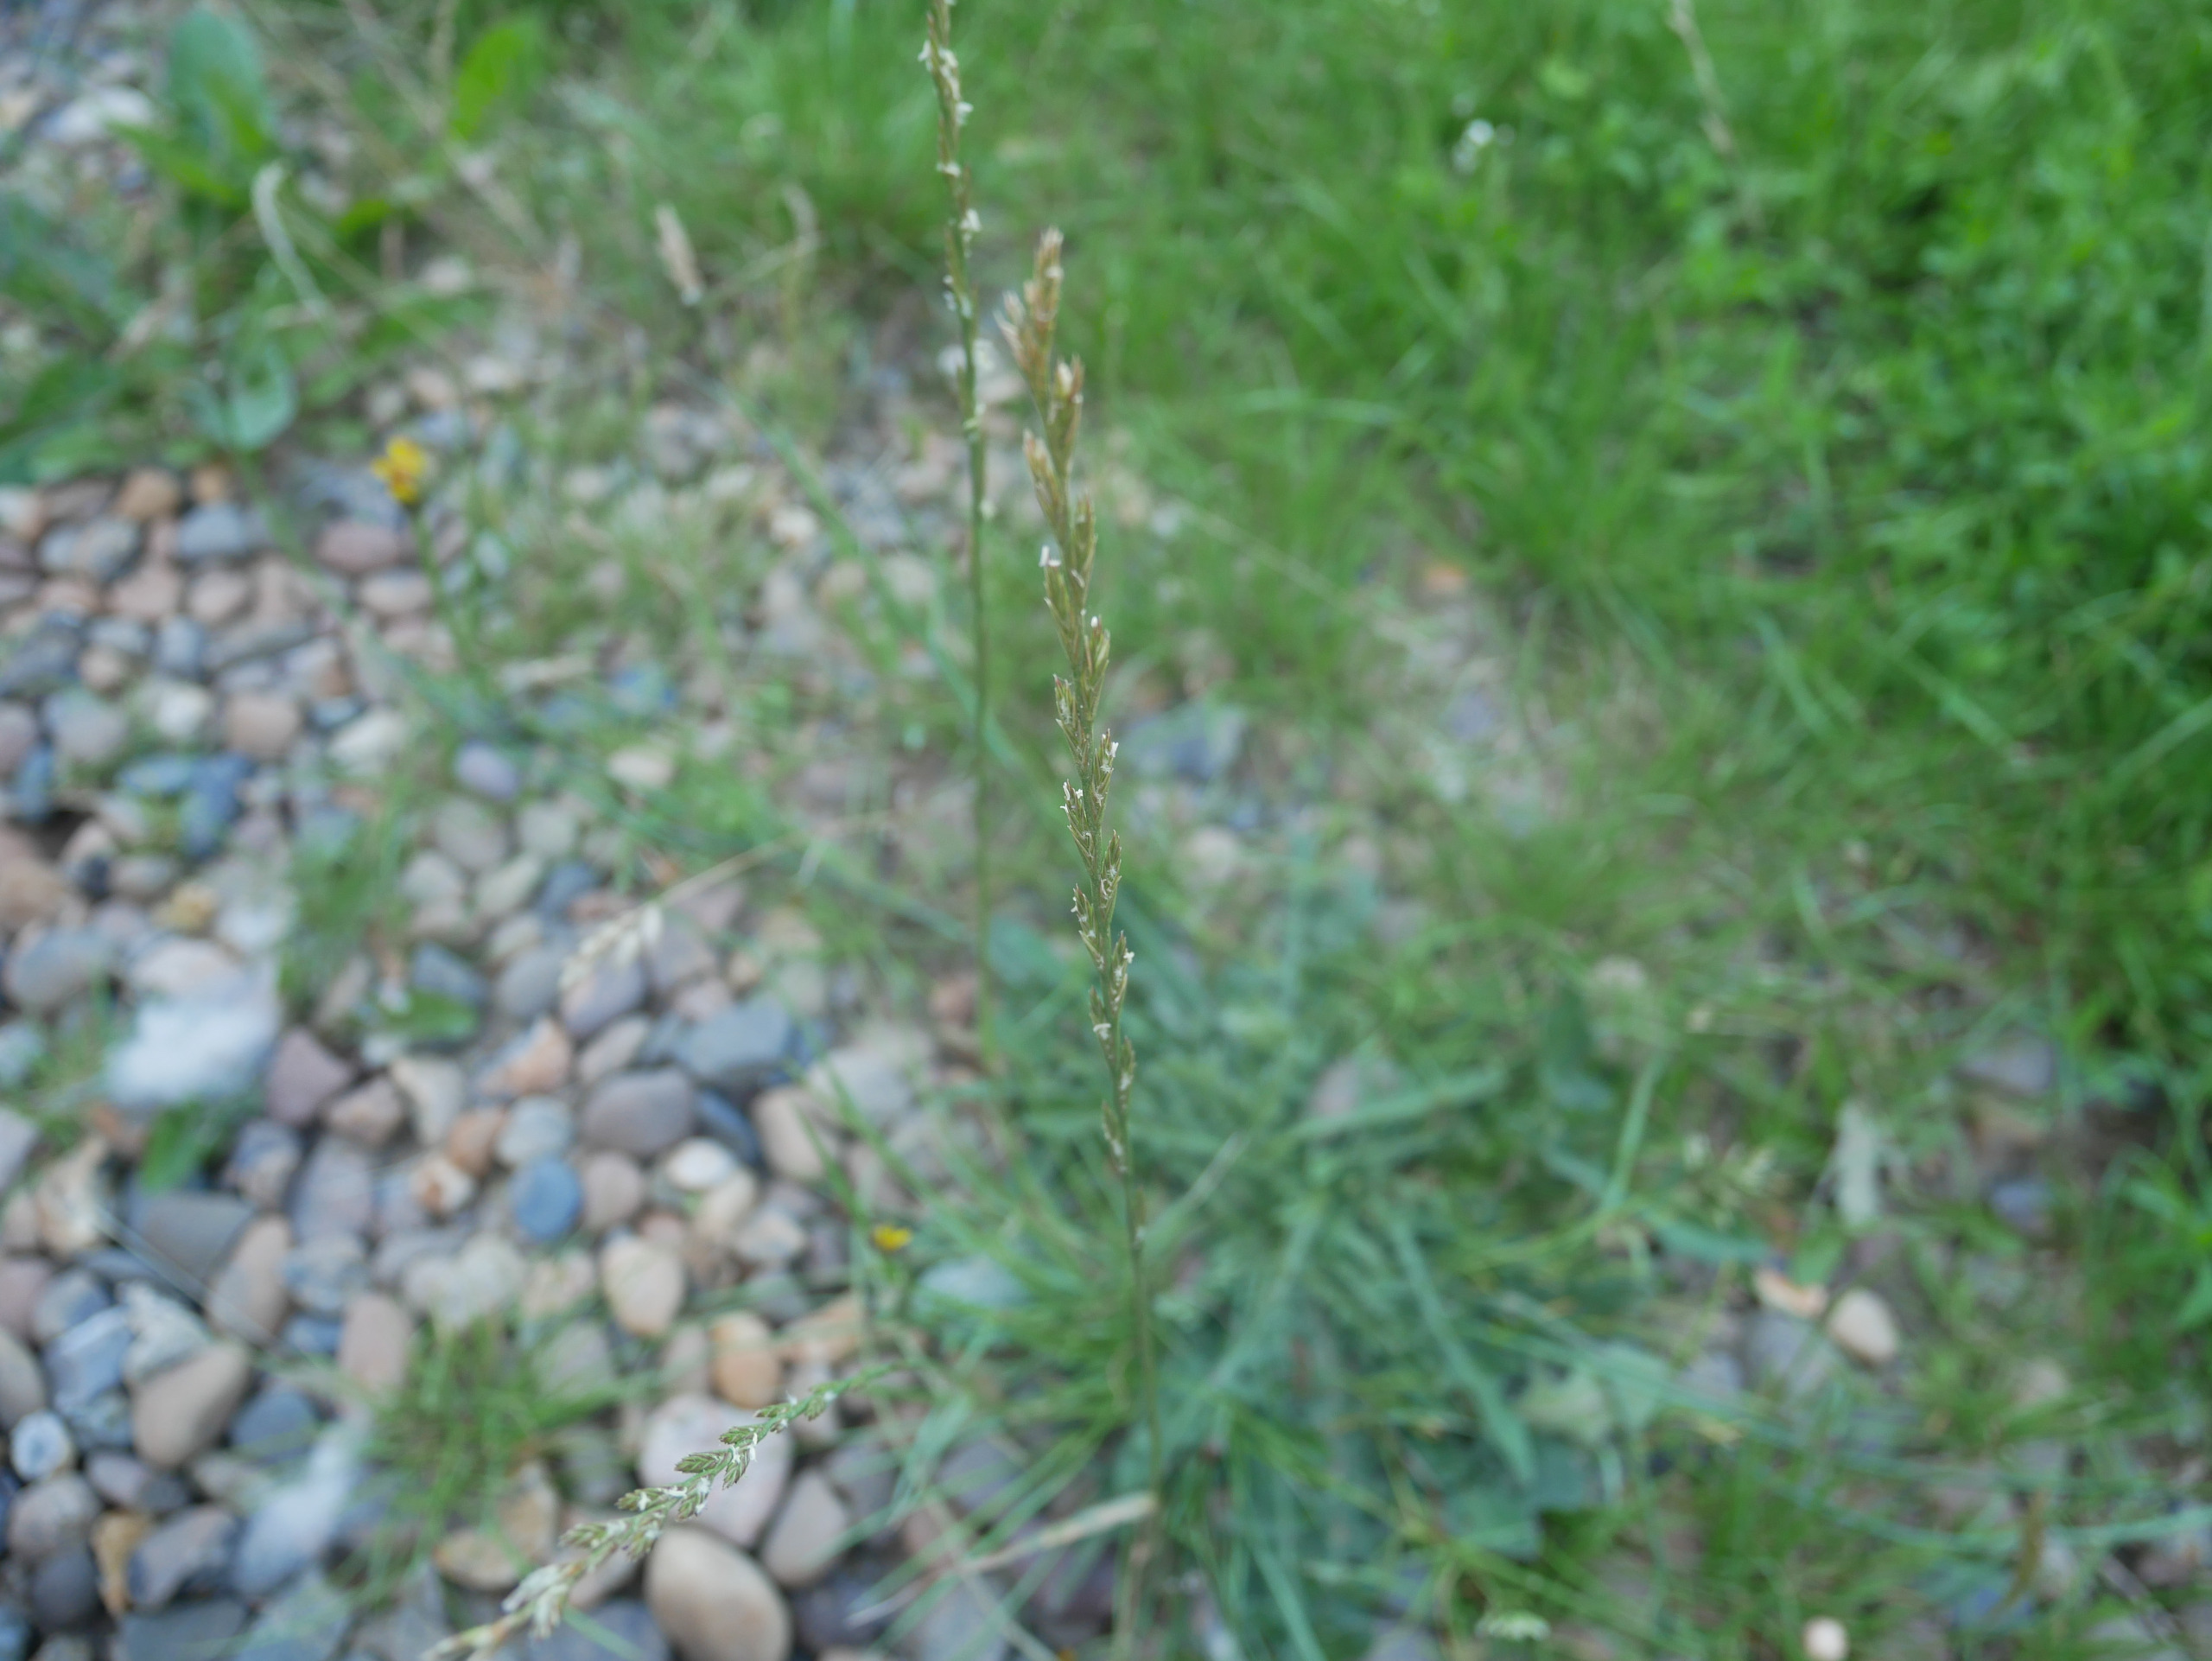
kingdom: Plantae
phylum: Tracheophyta
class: Liliopsida
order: Poales
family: Poaceae
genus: Lolium
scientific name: Lolium perenne
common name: Almindelig rajgræs
